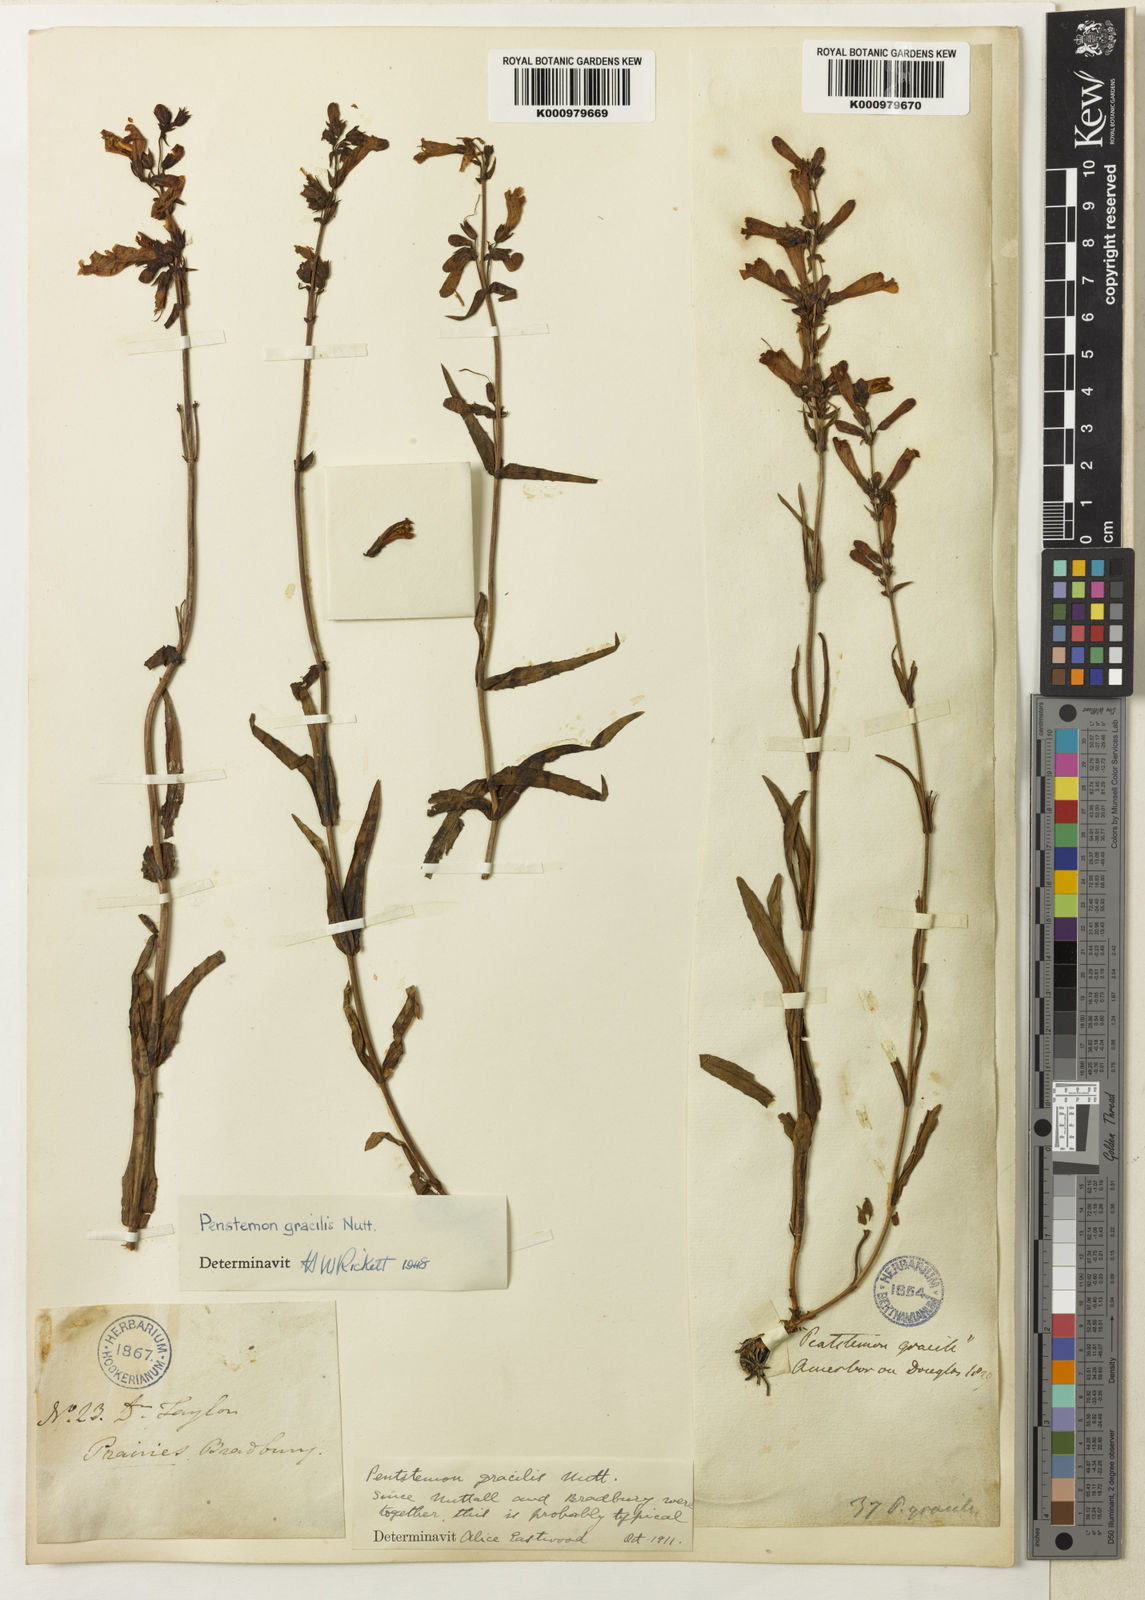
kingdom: Plantae
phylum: Tracheophyta
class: Magnoliopsida
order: Lamiales
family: Plantaginaceae
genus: Penstemon
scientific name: Penstemon gracilis
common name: Slender beardtongue
